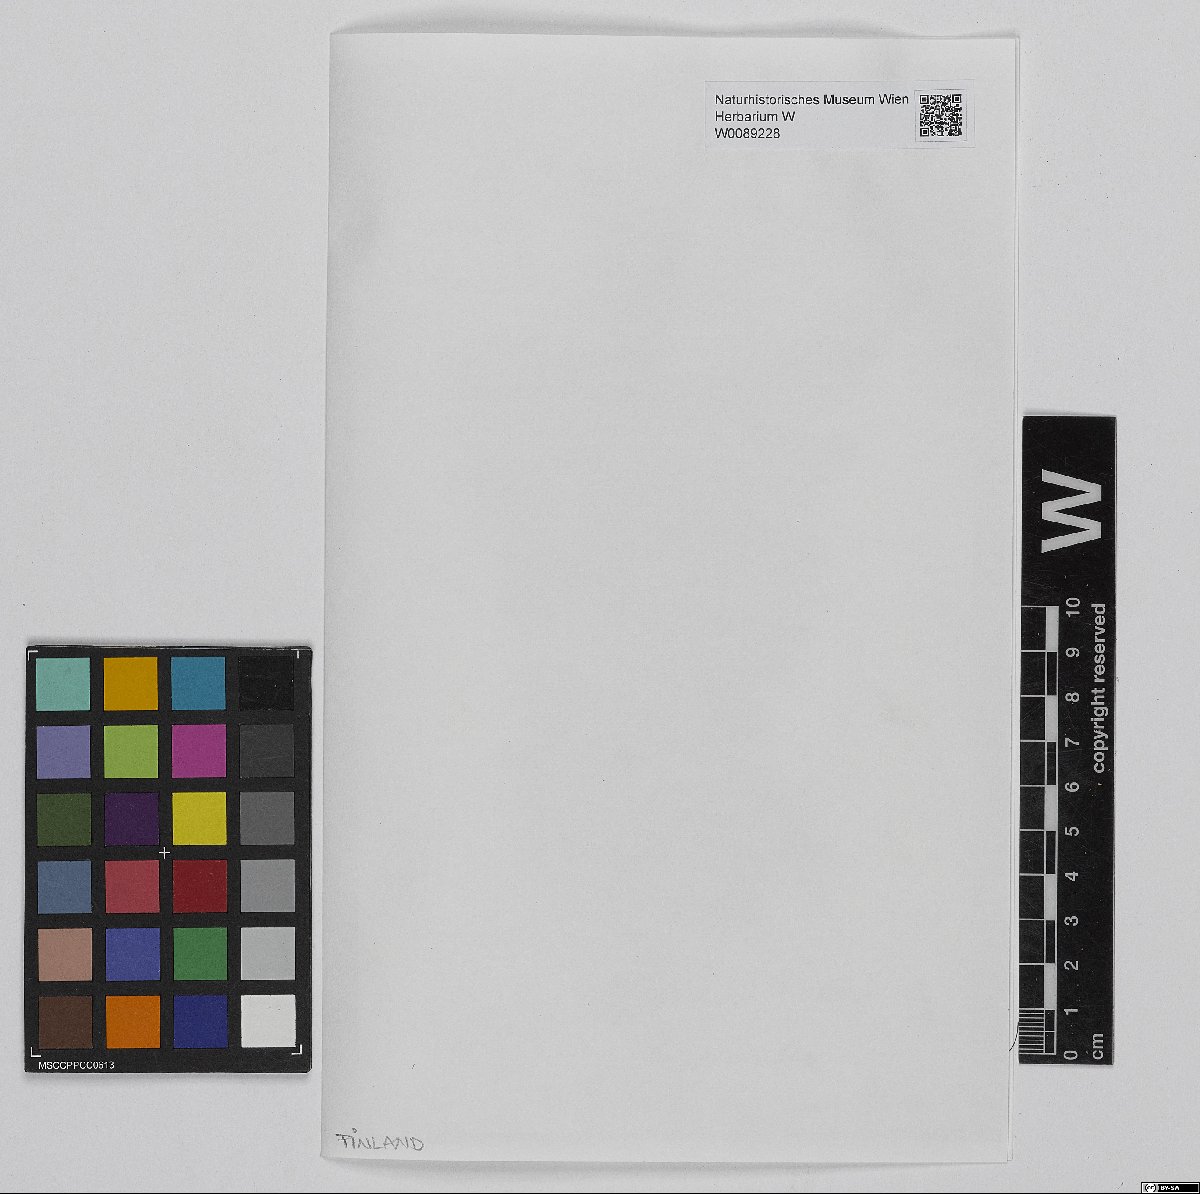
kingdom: Plantae
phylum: Bryophyta
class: Sphagnopsida
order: Sphagnales
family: Sphagnaceae
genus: Sphagnum
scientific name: Sphagnum lindbergii
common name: Lindberg's peat moss
